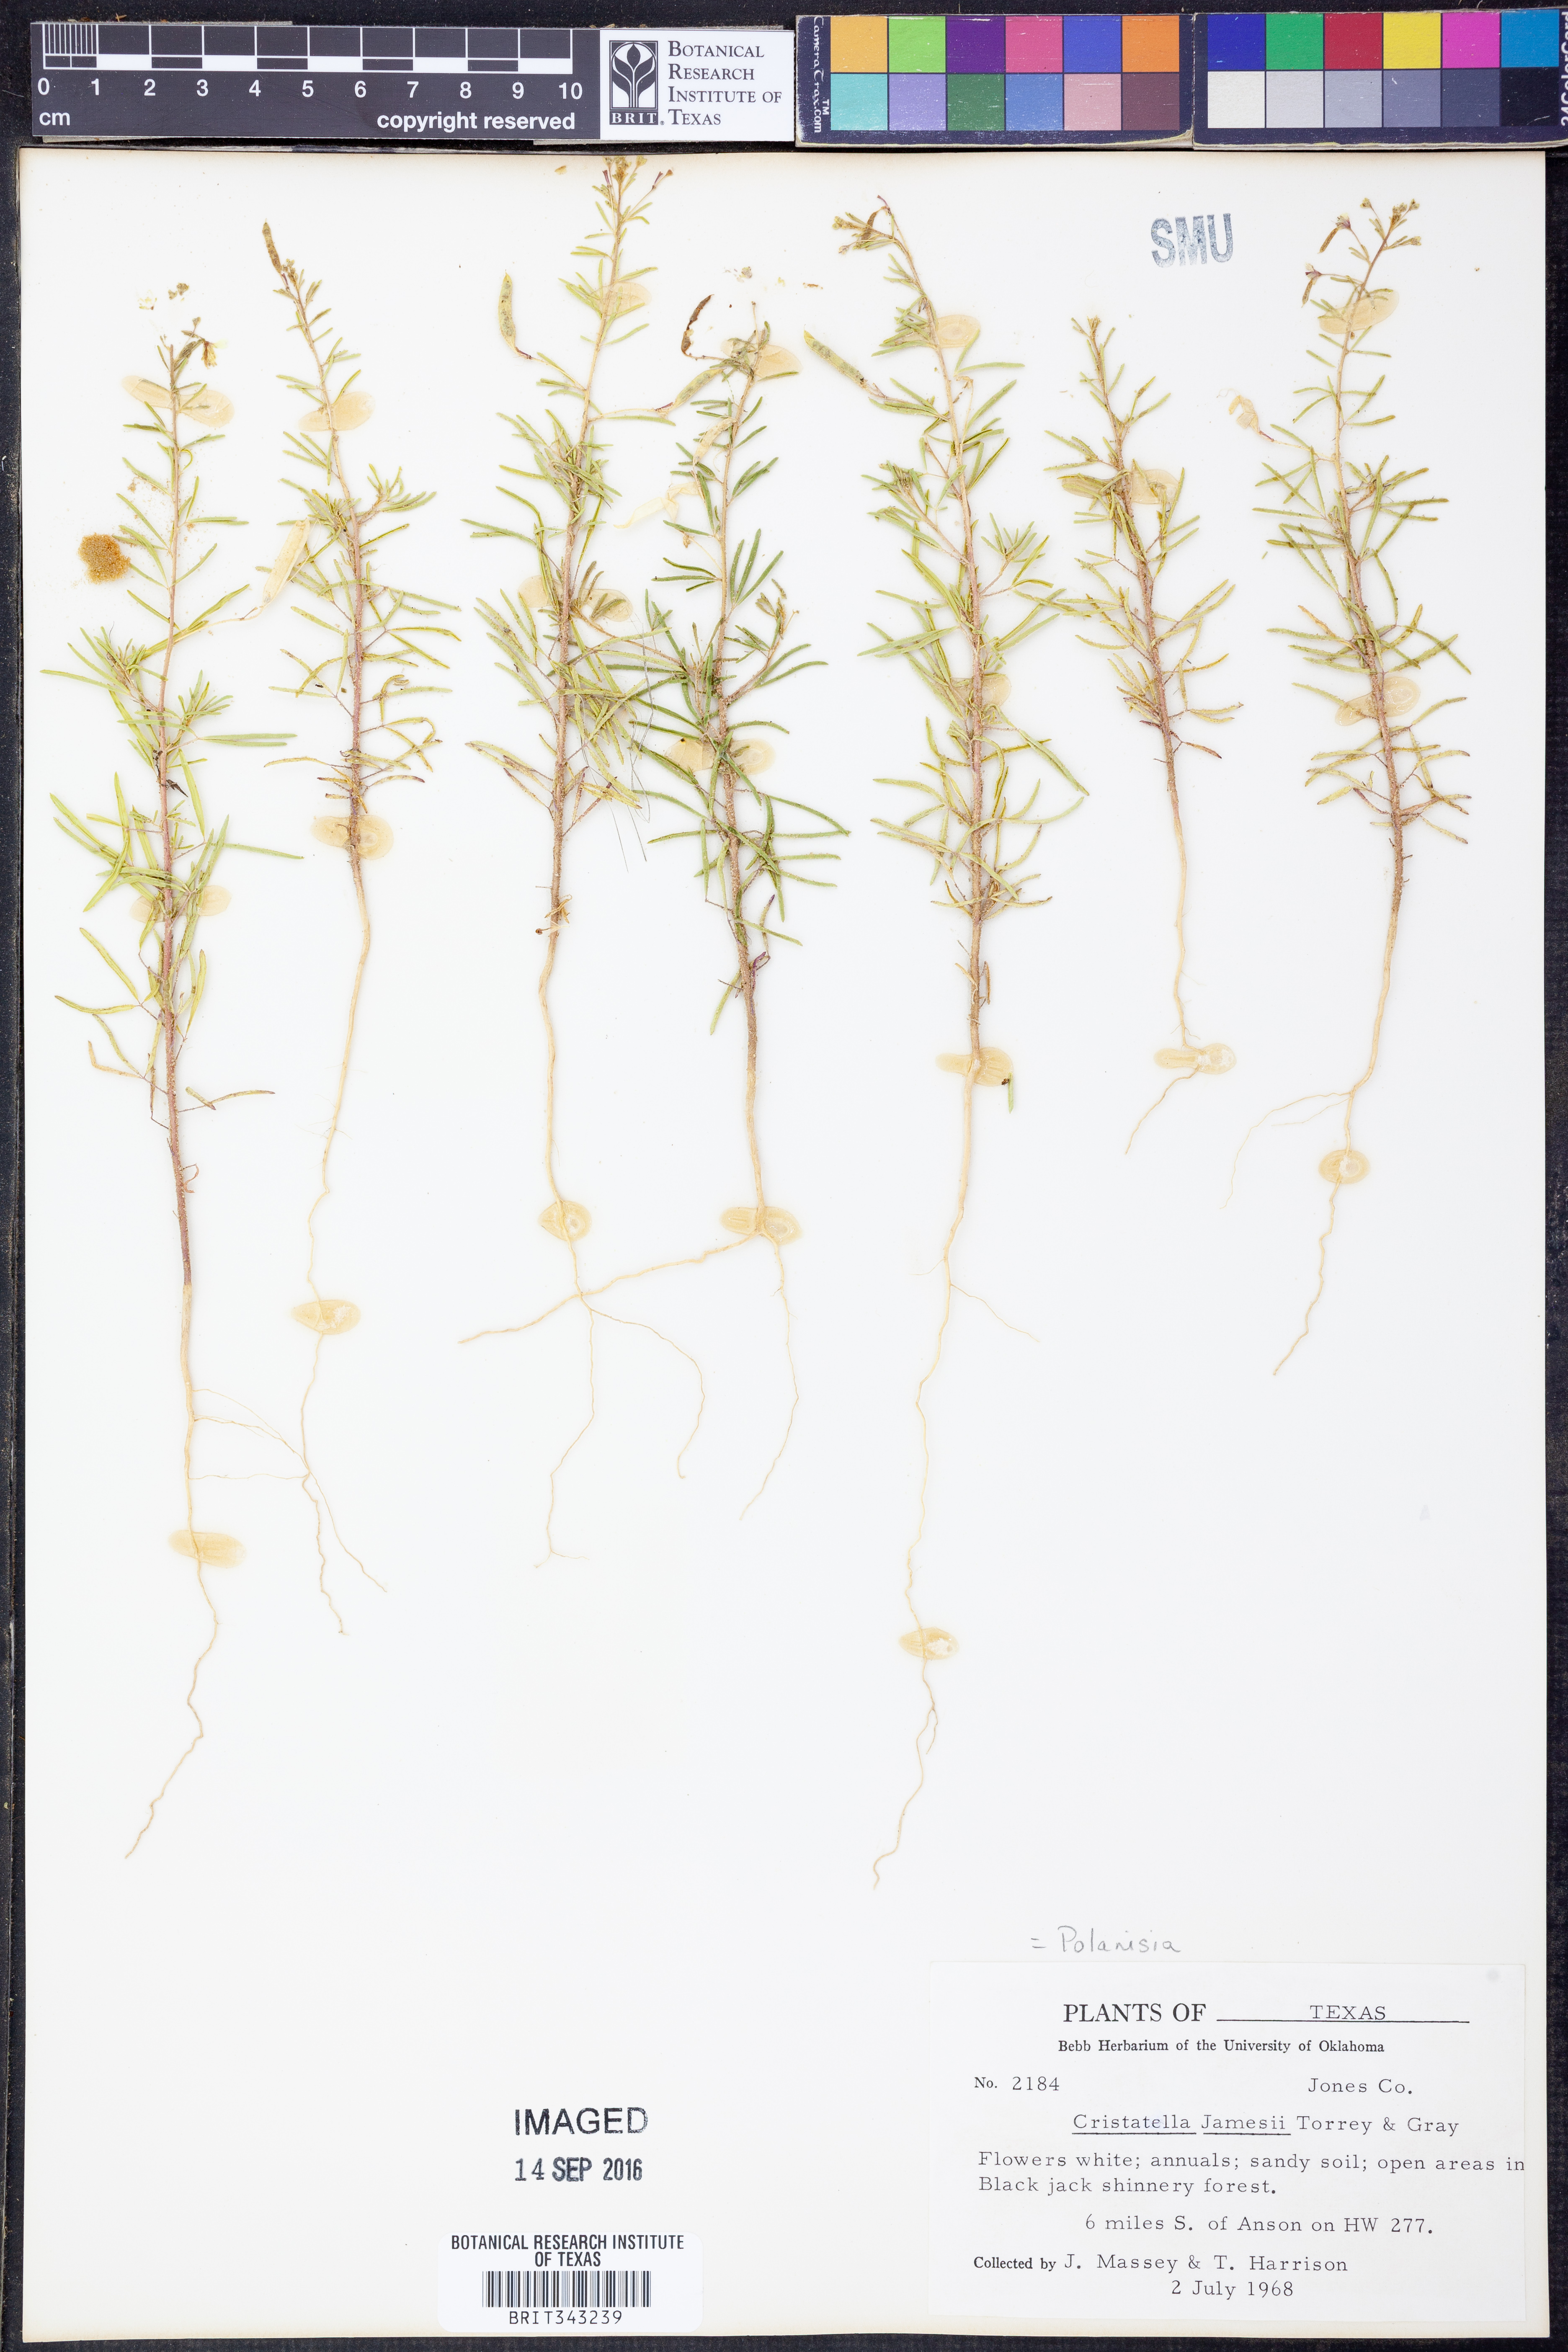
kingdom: Plantae
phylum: Tracheophyta
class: Magnoliopsida
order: Brassicales
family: Cleomaceae
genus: Polanisia
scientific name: Polanisia jamesii
